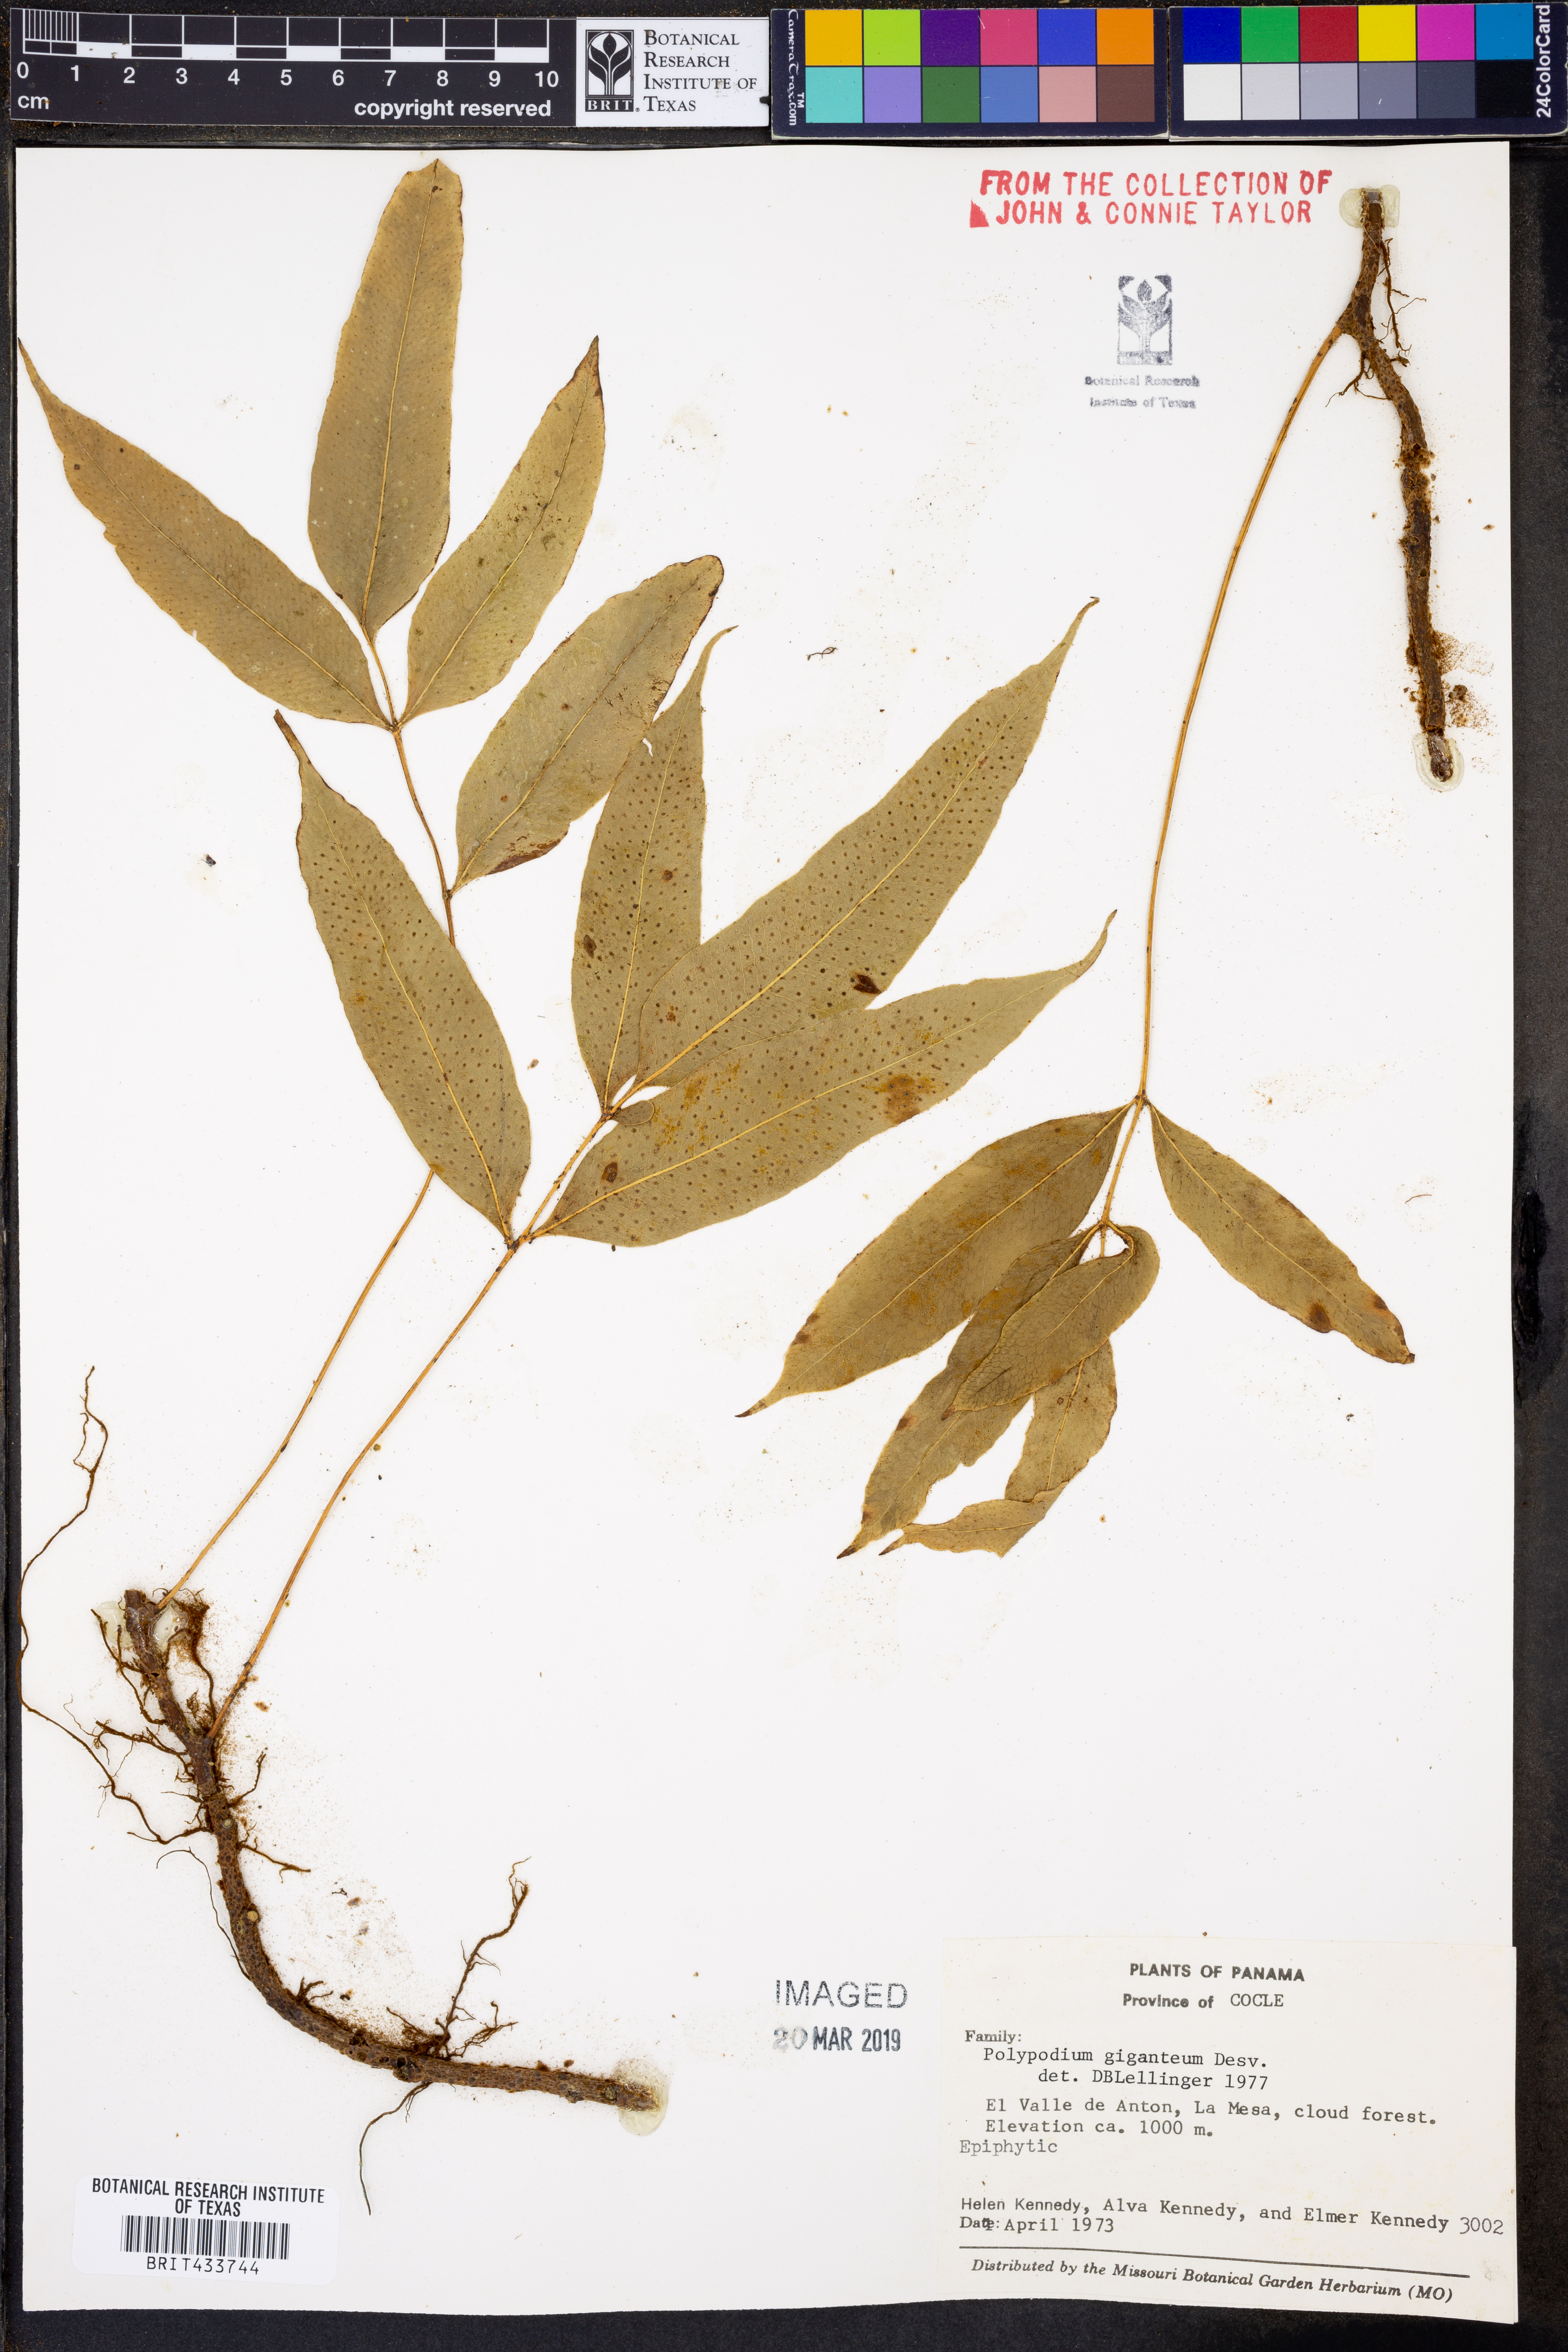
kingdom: Plantae
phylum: Tracheophyta
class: Polypodiopsida
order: Polypodiales
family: Polypodiaceae
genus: Niphidium
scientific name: Niphidium crassifolium
